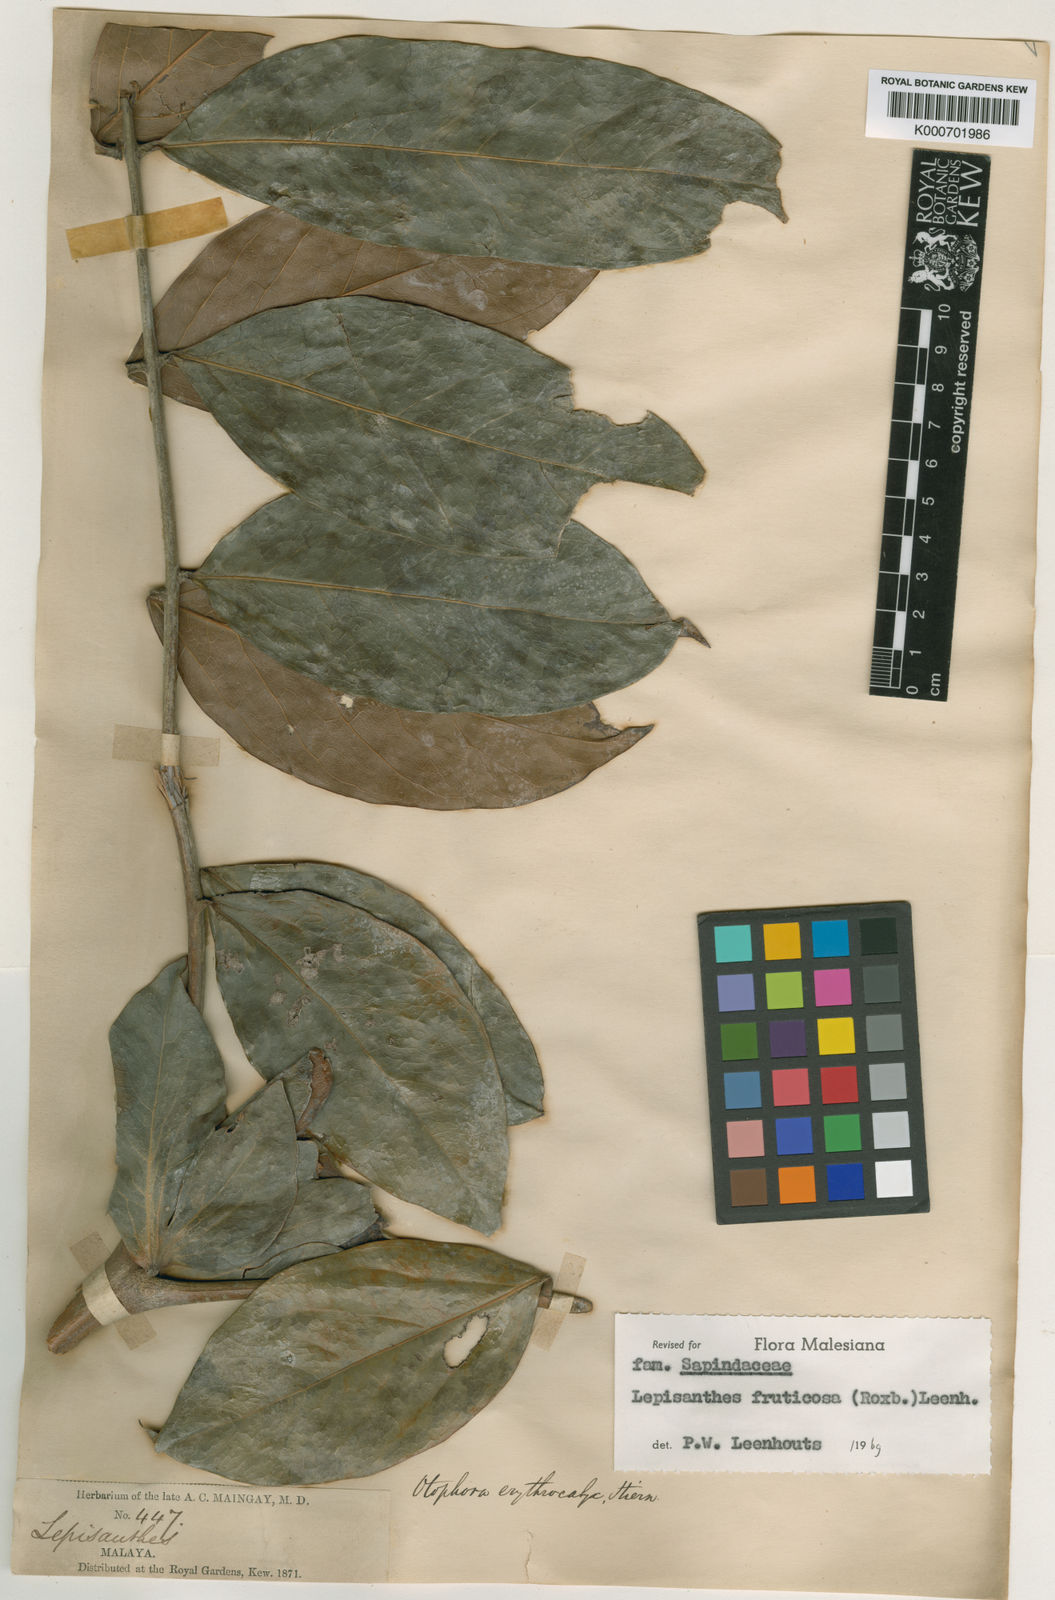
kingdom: Plantae
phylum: Tracheophyta
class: Magnoliopsida
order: Sapindales
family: Sapindaceae
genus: Lepisanthes
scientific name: Lepisanthes fruticosa
